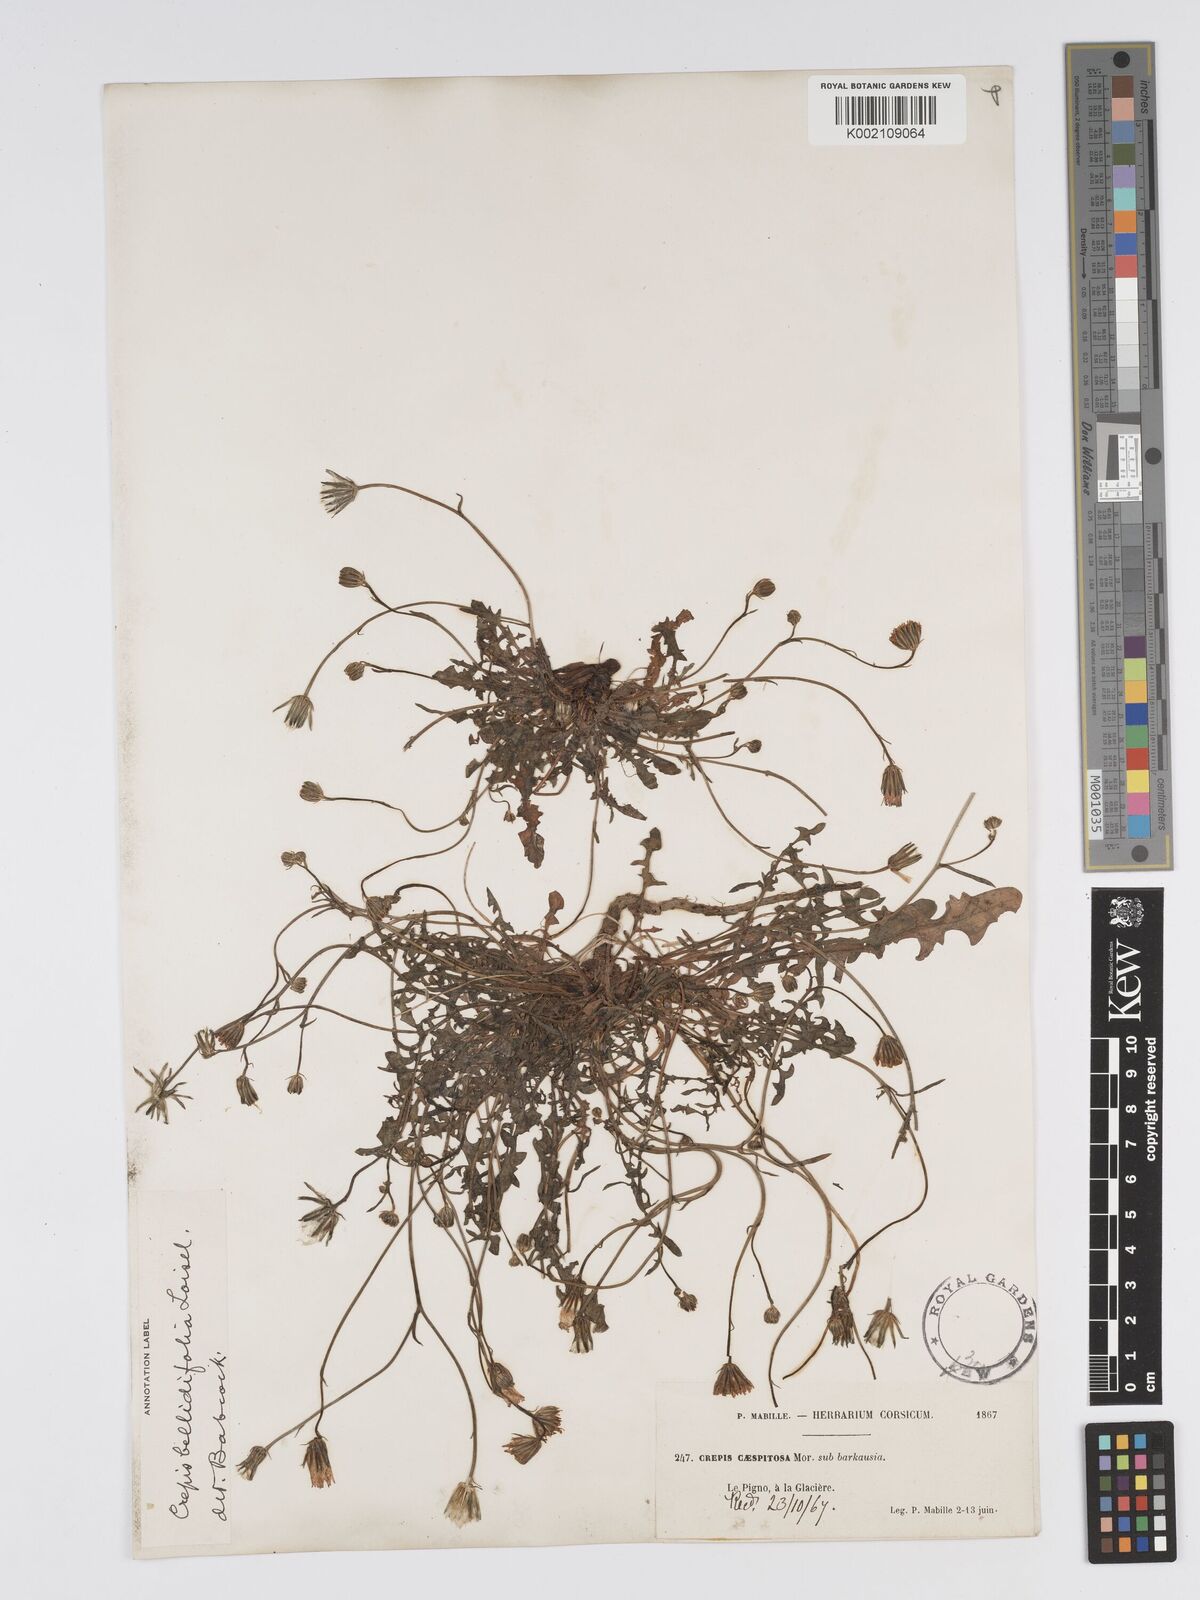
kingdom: Plantae
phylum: Tracheophyta
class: Magnoliopsida
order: Asterales
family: Asteraceae
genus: Crepis
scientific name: Crepis bellidifolia
